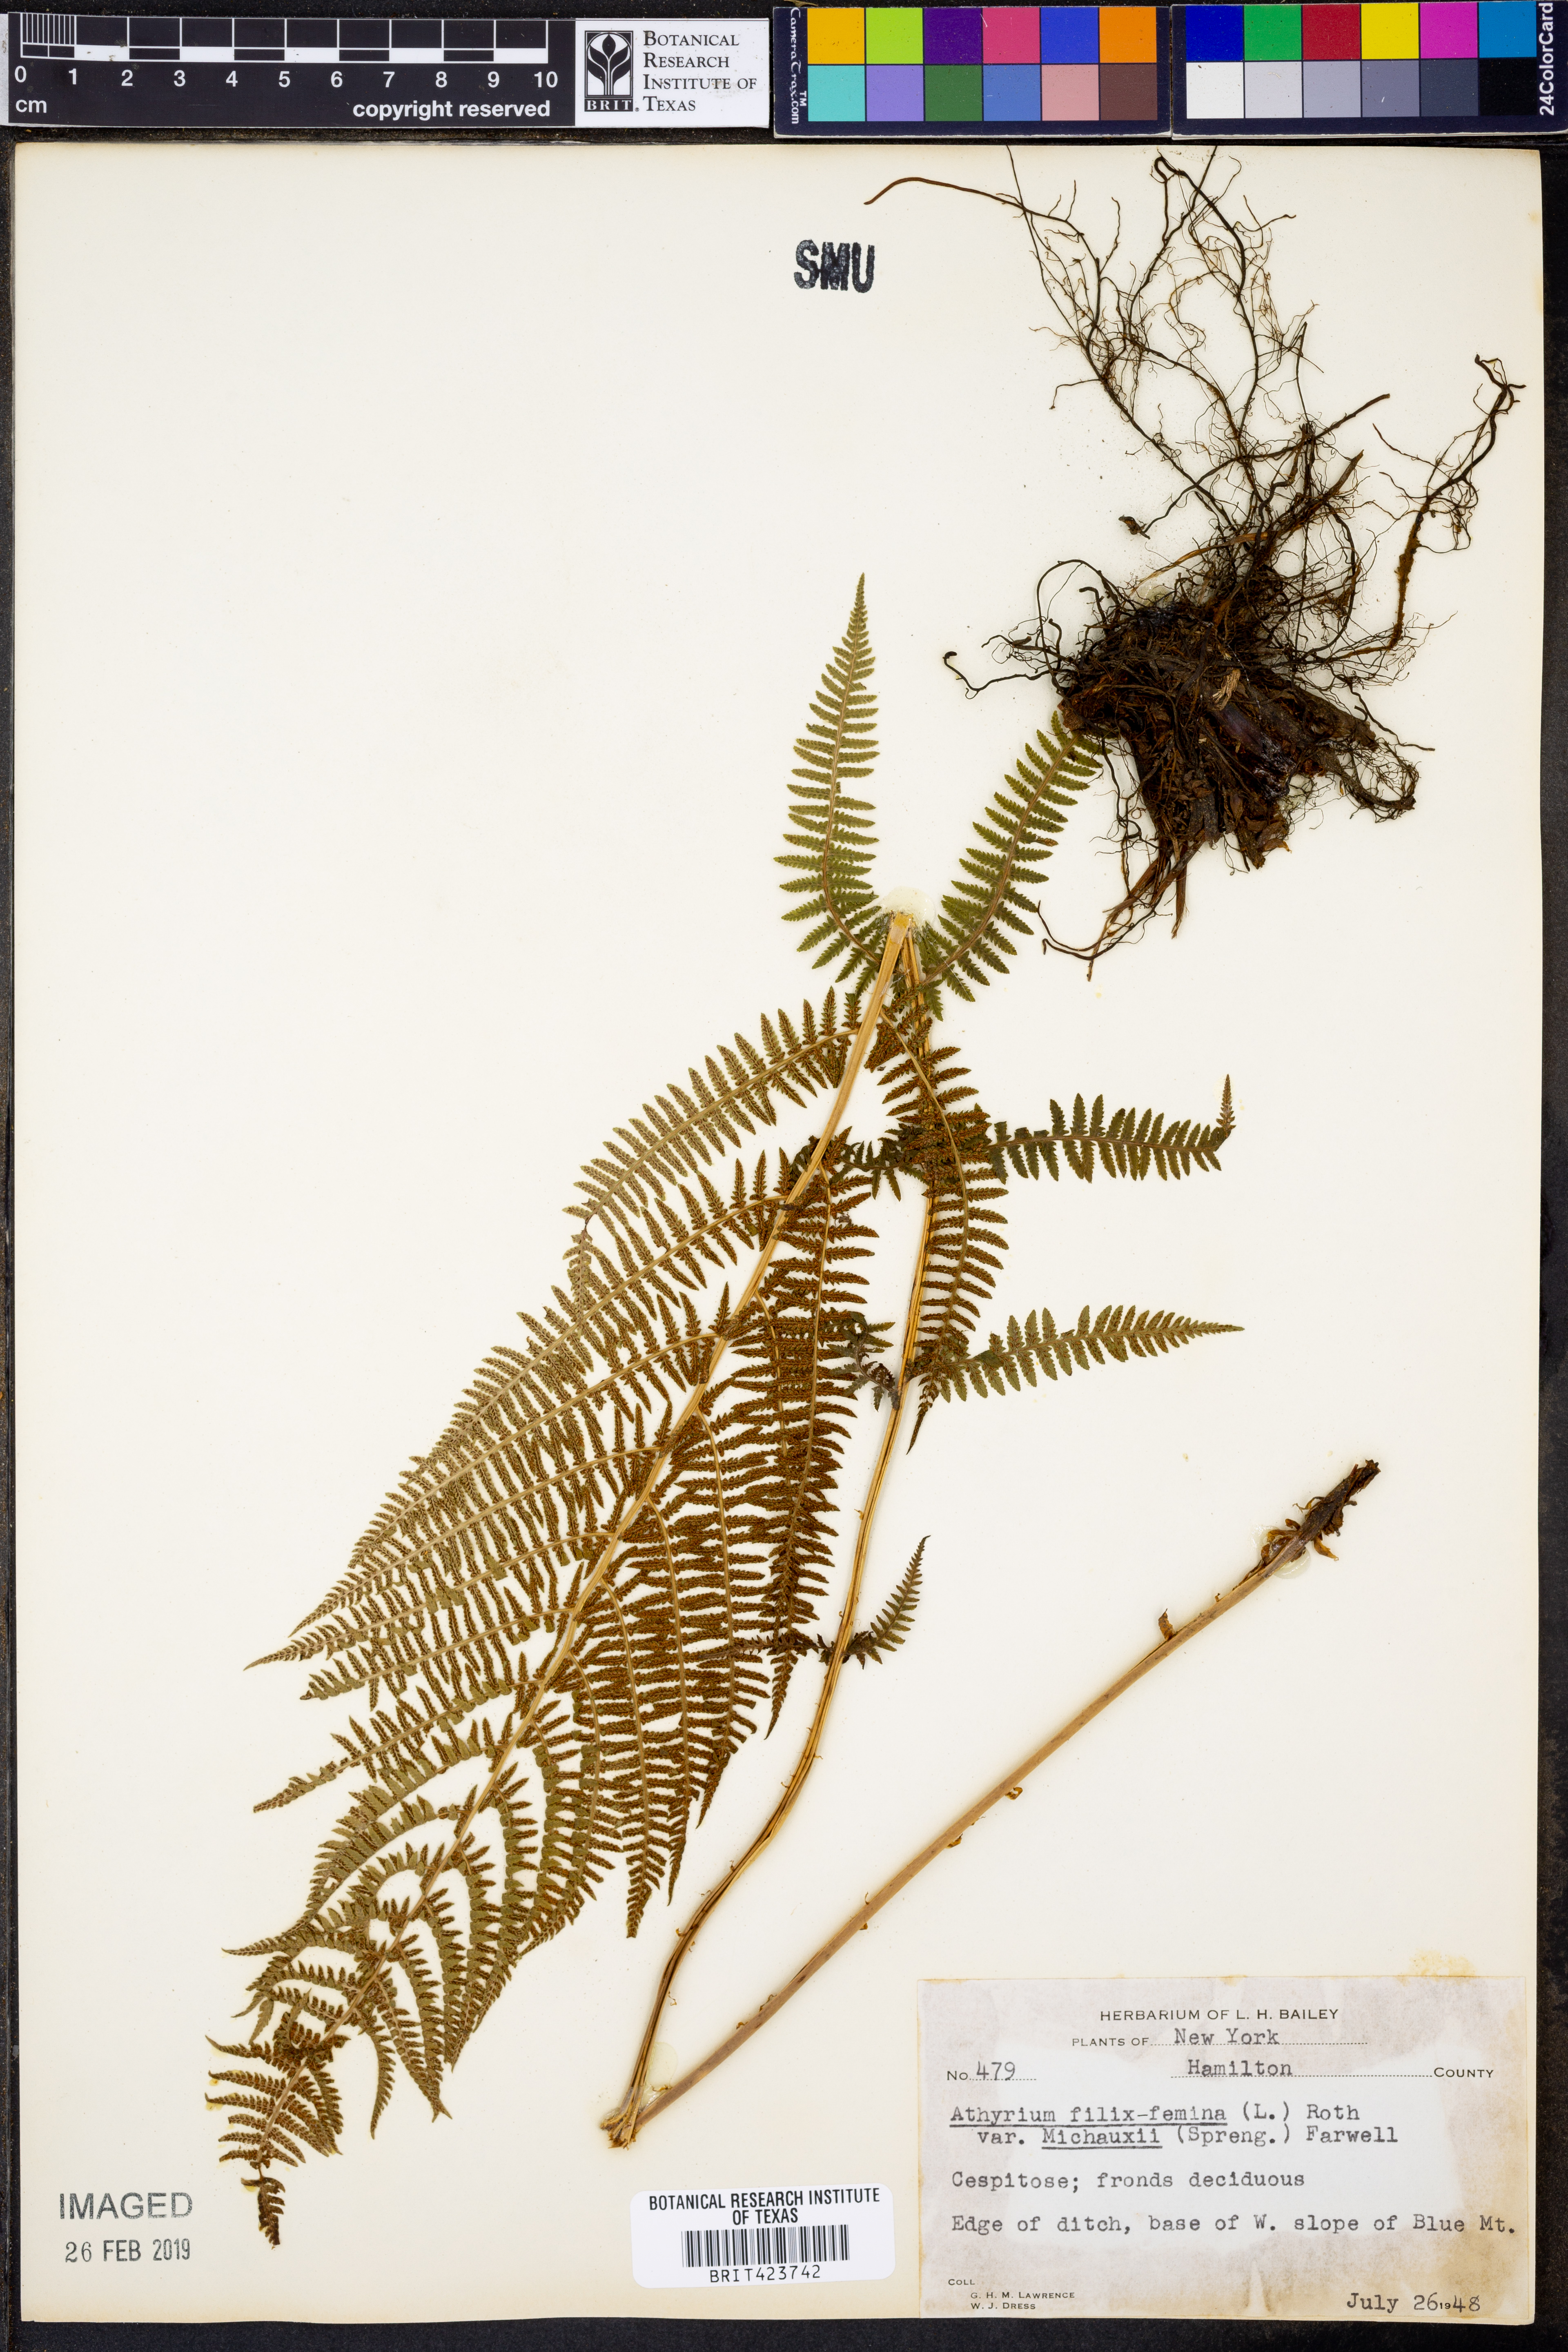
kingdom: Plantae
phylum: Tracheophyta
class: Polypodiopsida
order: Polypodiales
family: Athyriaceae
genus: Athyrium
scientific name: Athyrium angustum
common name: Northern lady fern
